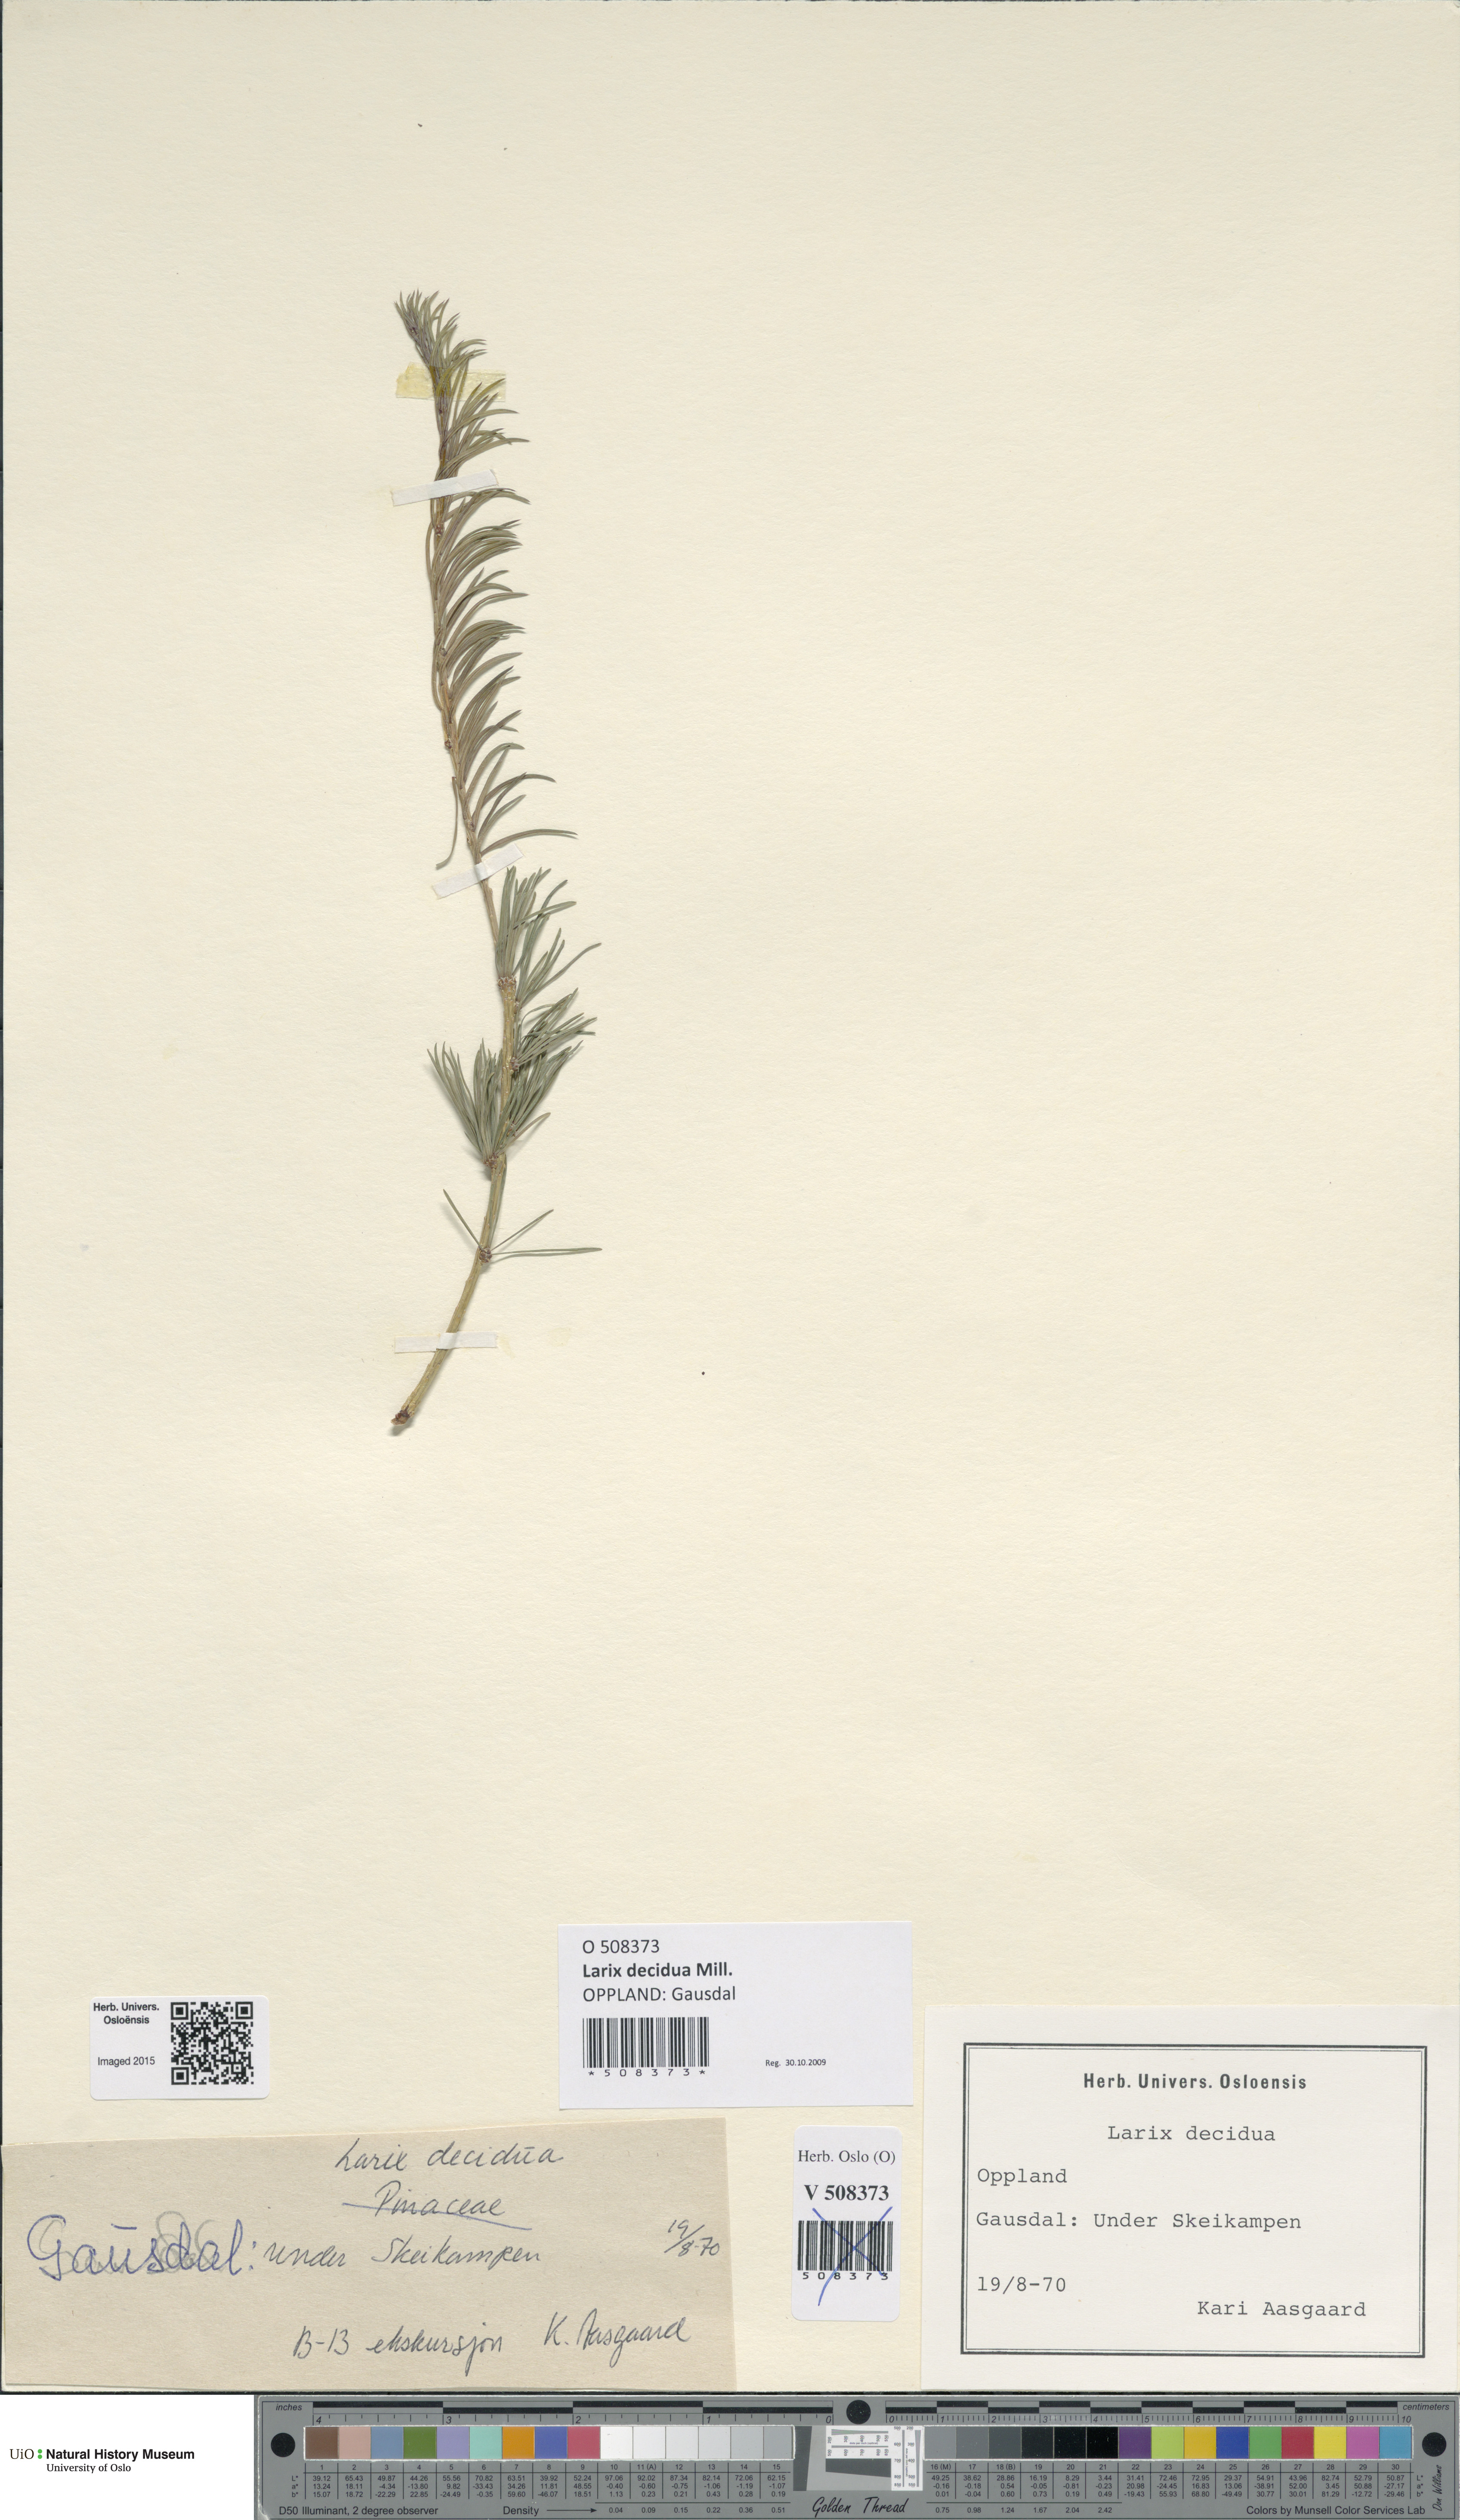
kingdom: Plantae
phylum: Tracheophyta
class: Pinopsida
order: Pinales
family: Pinaceae
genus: Larix
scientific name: Larix decidua
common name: European larch
